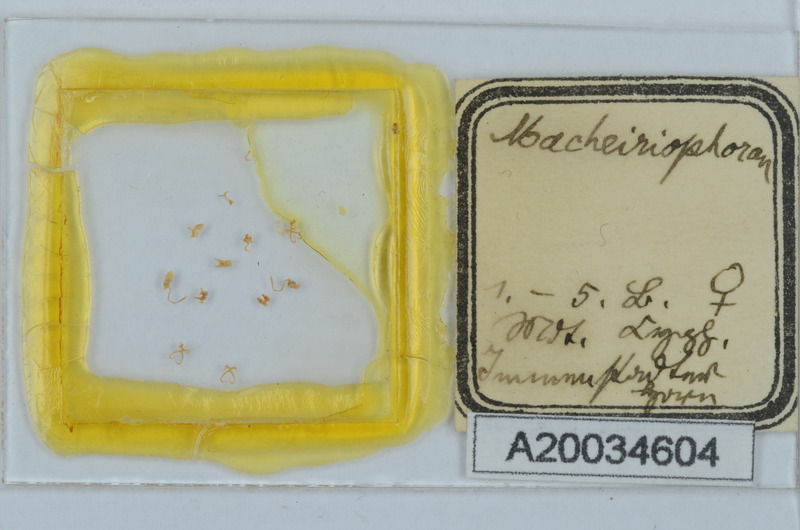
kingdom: Animalia
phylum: Arthropoda
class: Diplopoda
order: Chordeumatida
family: Craspedosomatidae
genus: Macheiriophoron
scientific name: Macheiriophoron
